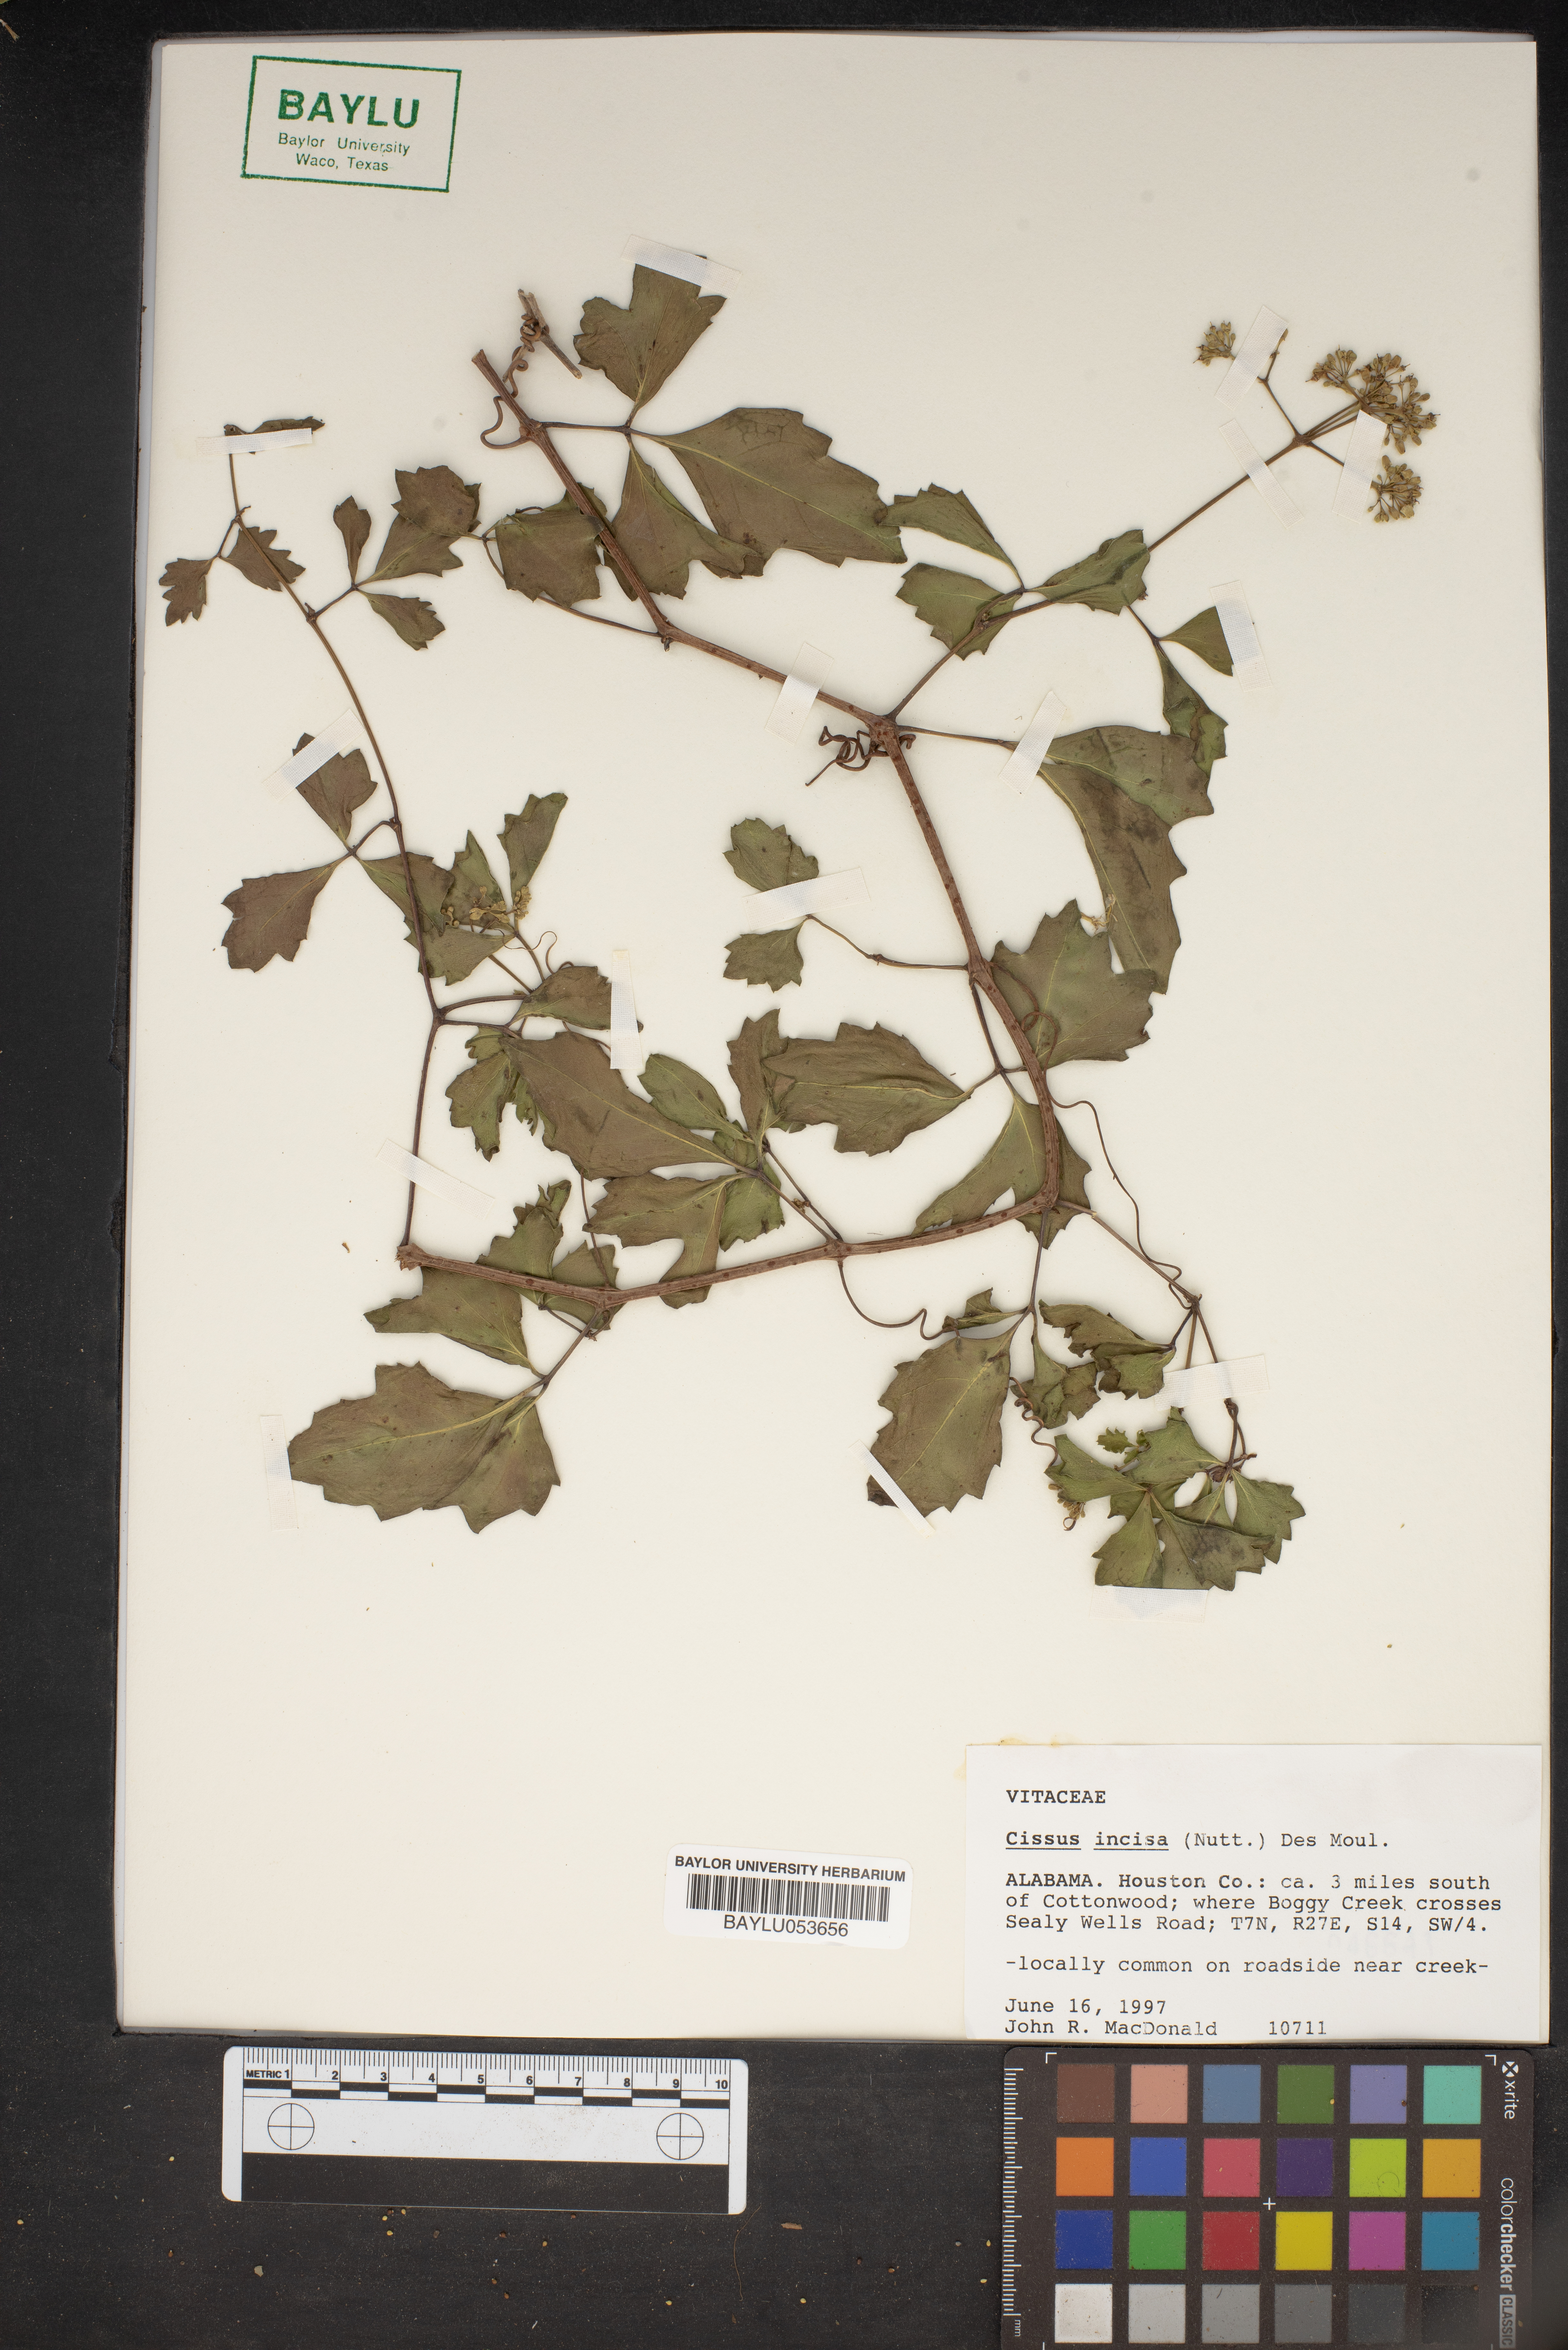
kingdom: Plantae
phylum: Tracheophyta
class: Magnoliopsida
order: Vitales
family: Vitaceae
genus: Cissus
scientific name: Cissus trifoliata
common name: Vine-sorrel
